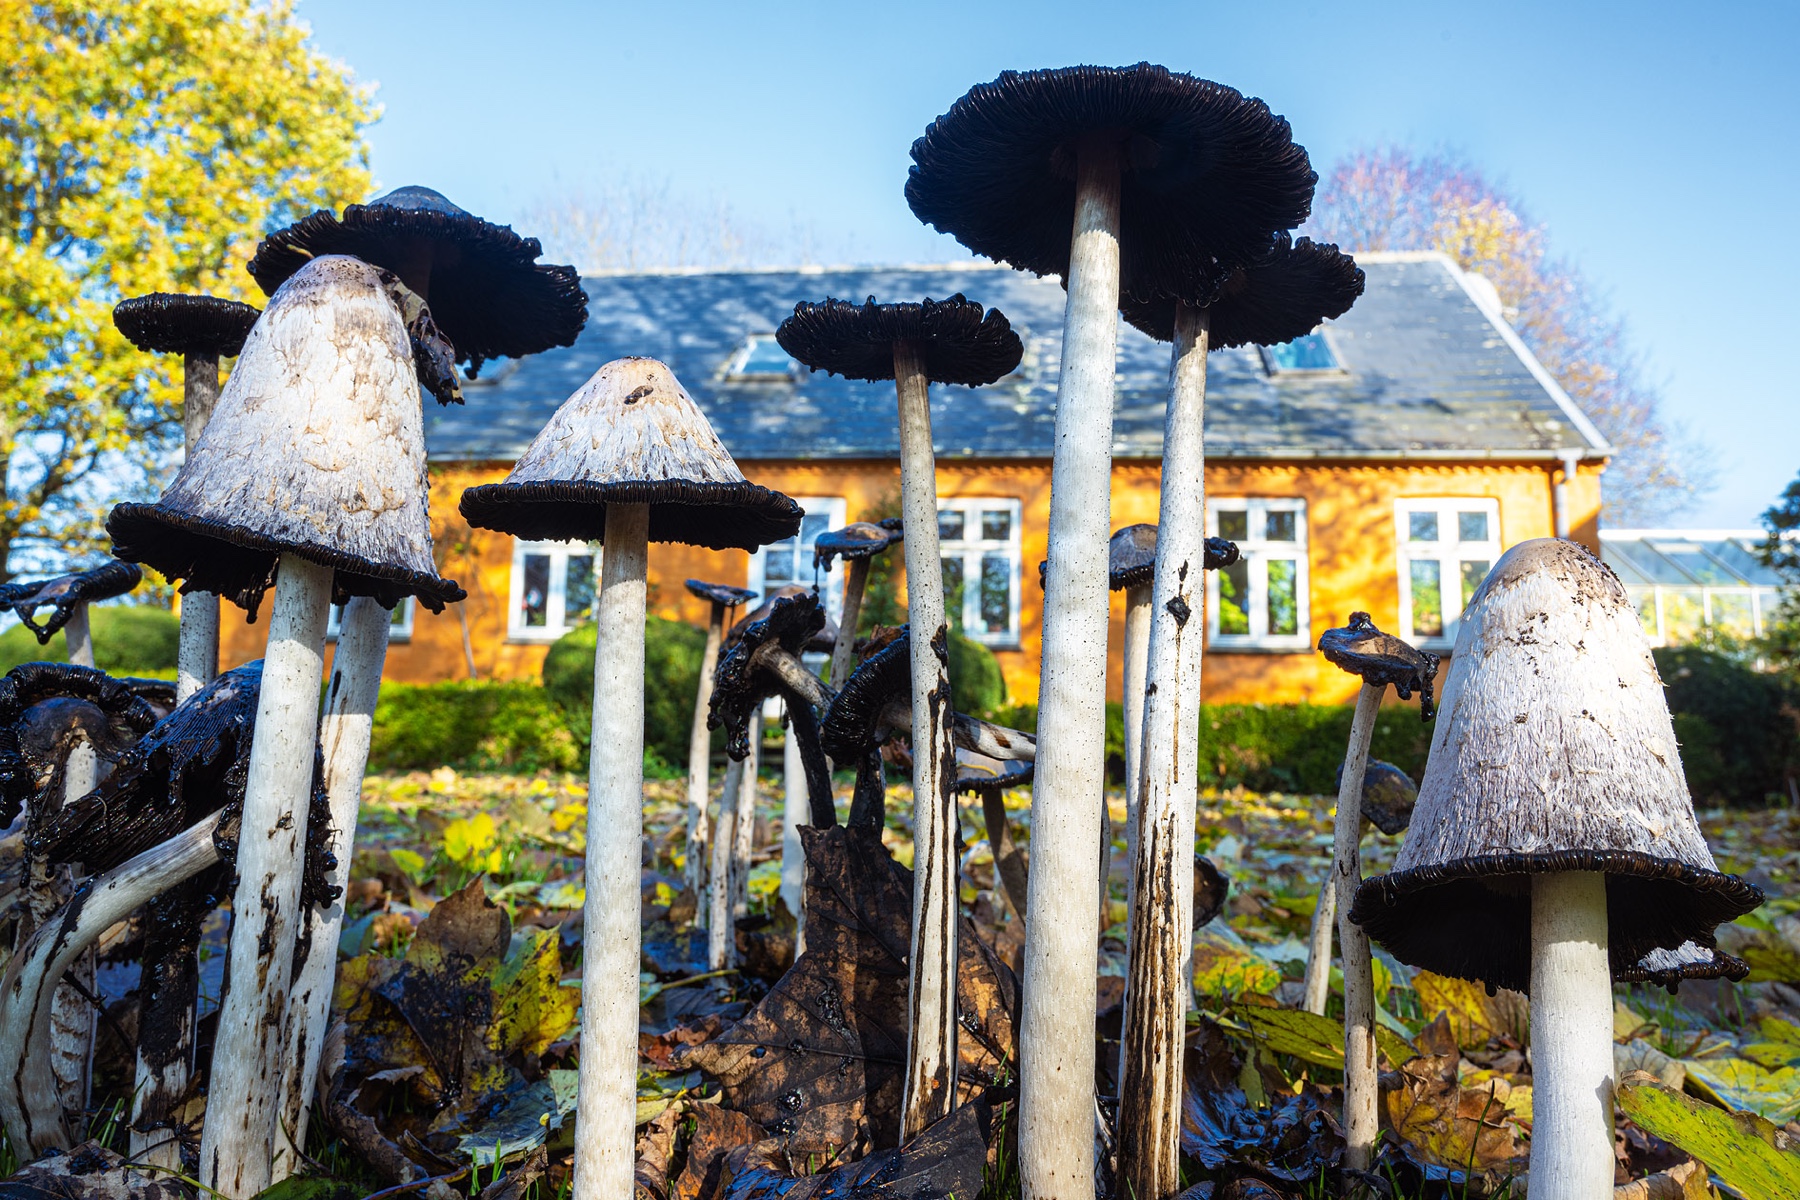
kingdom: Fungi
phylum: Basidiomycota
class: Agaricomycetes
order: Agaricales
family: Agaricaceae
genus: Coprinus
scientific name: Coprinus comatus
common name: stor parykhat
